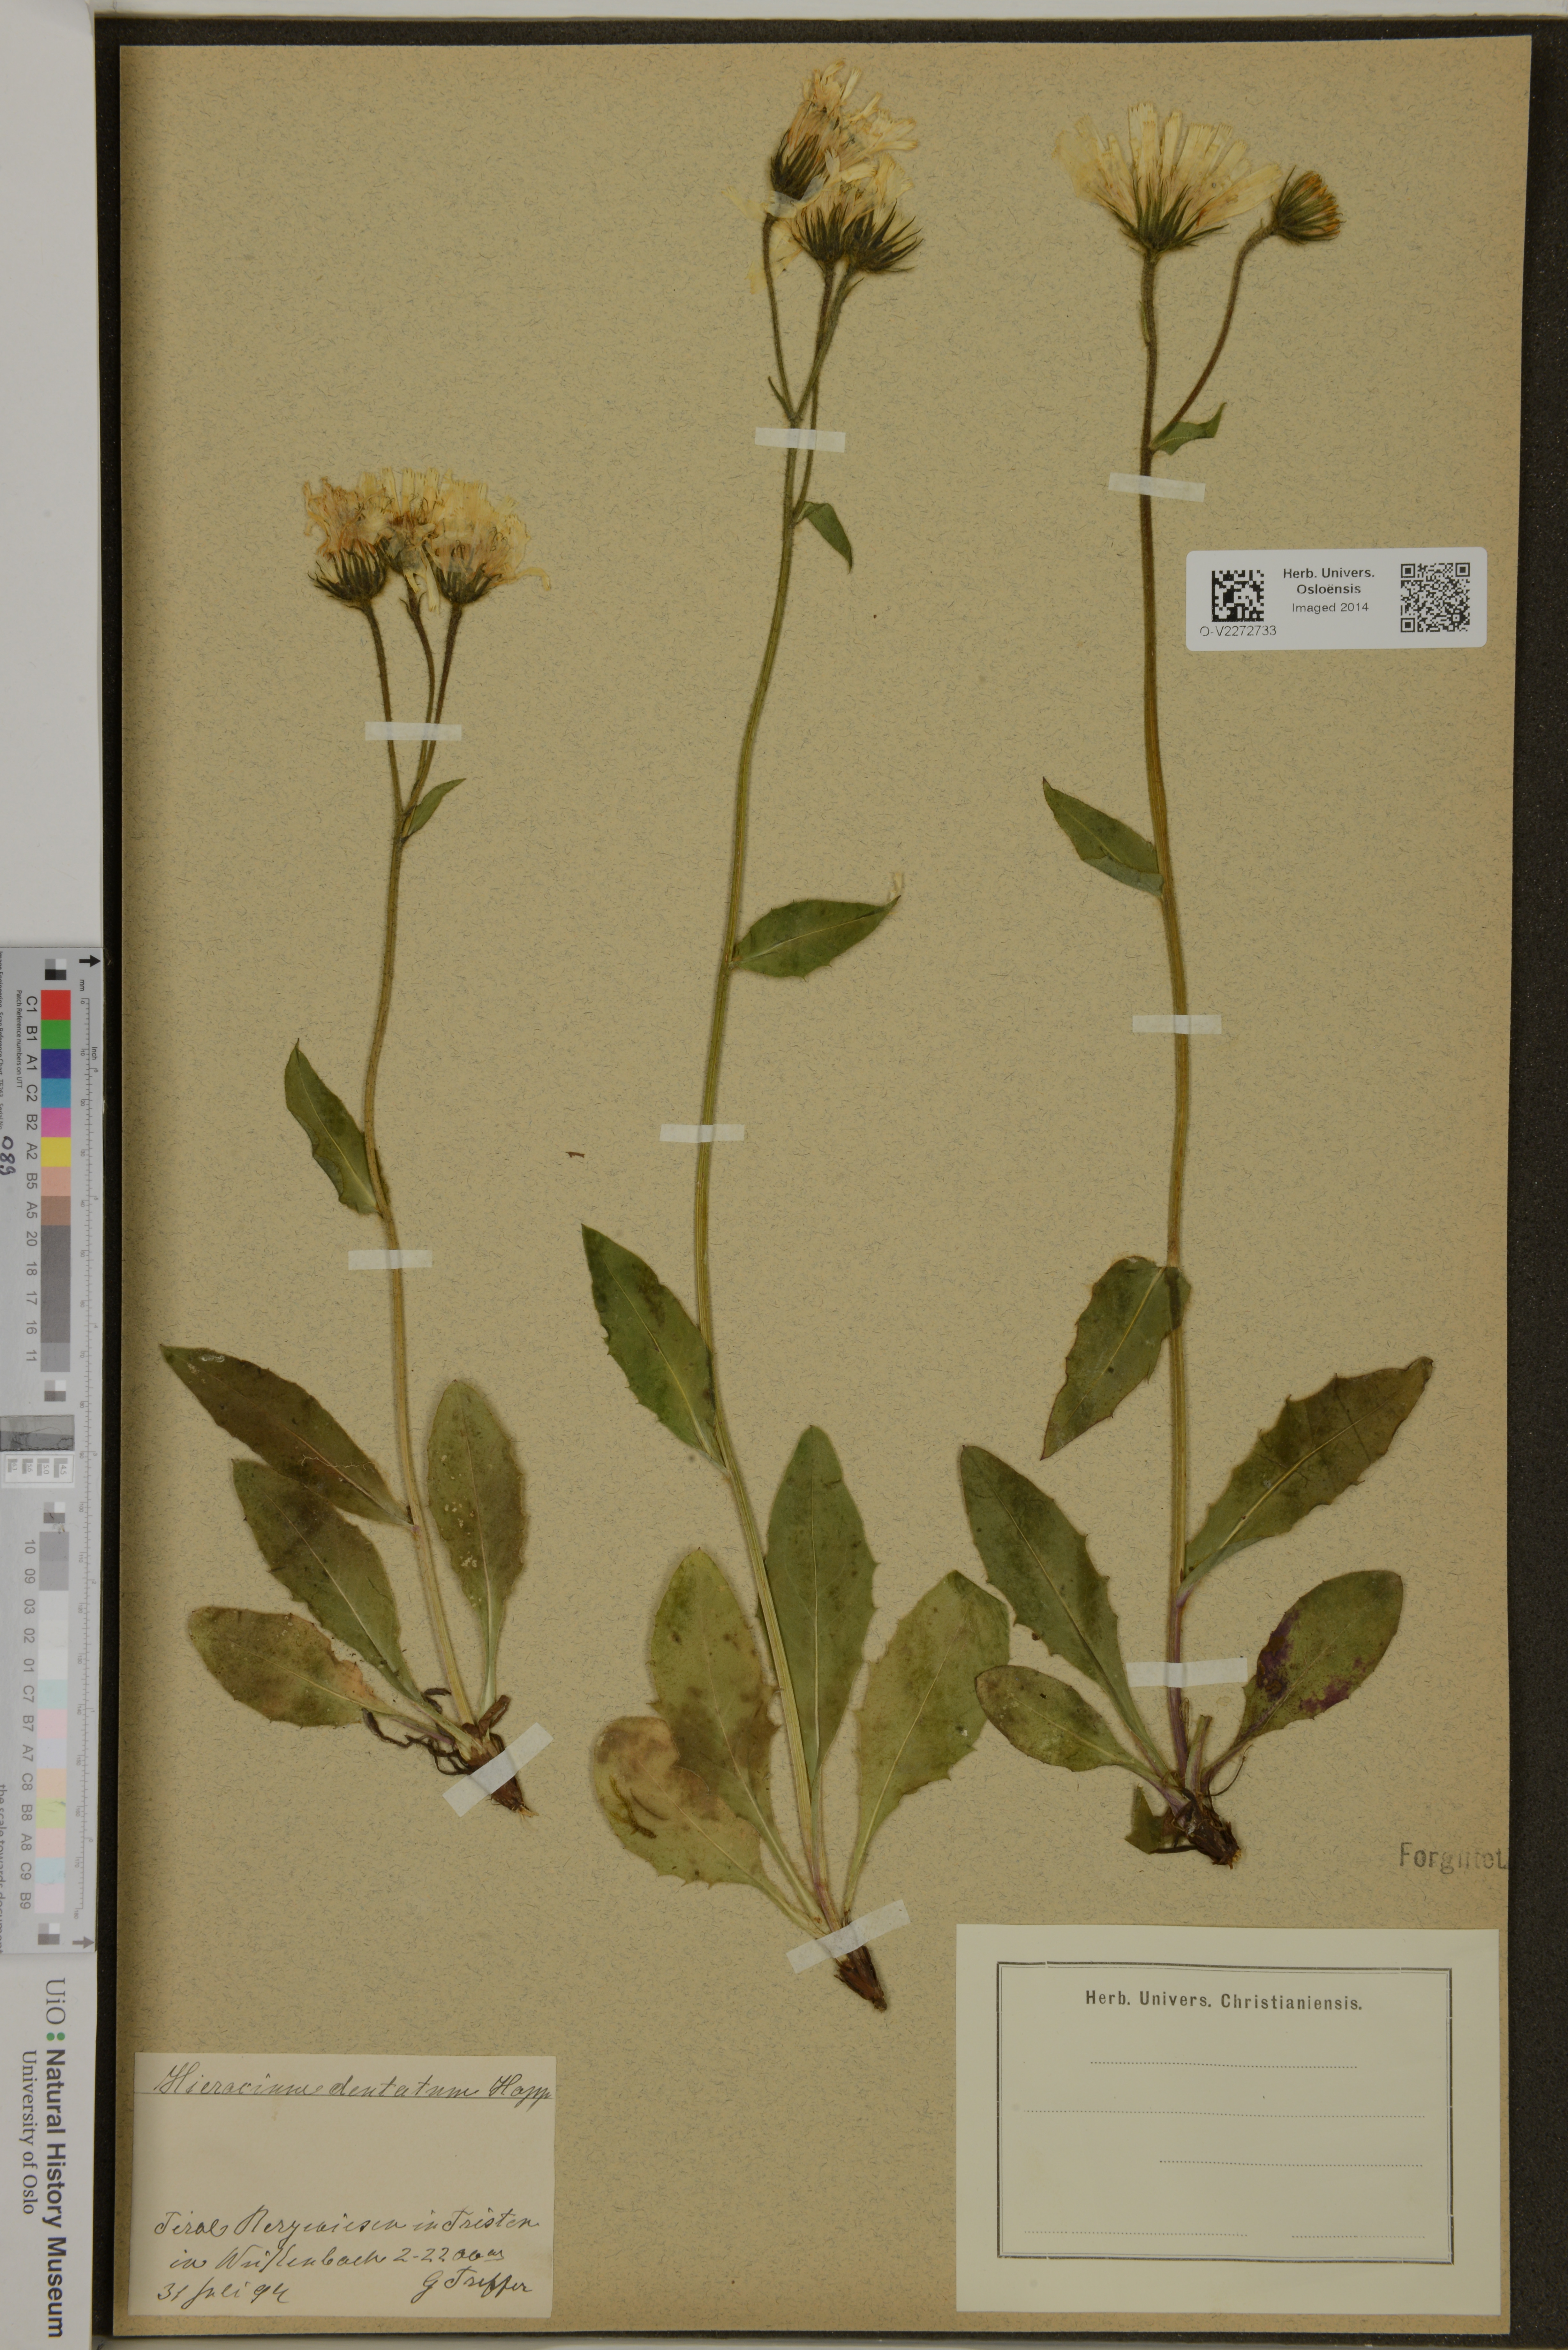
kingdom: Plantae
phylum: Tracheophyta
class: Magnoliopsida
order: Asterales
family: Asteraceae
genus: Hieracium
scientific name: Hieracium dentatum
